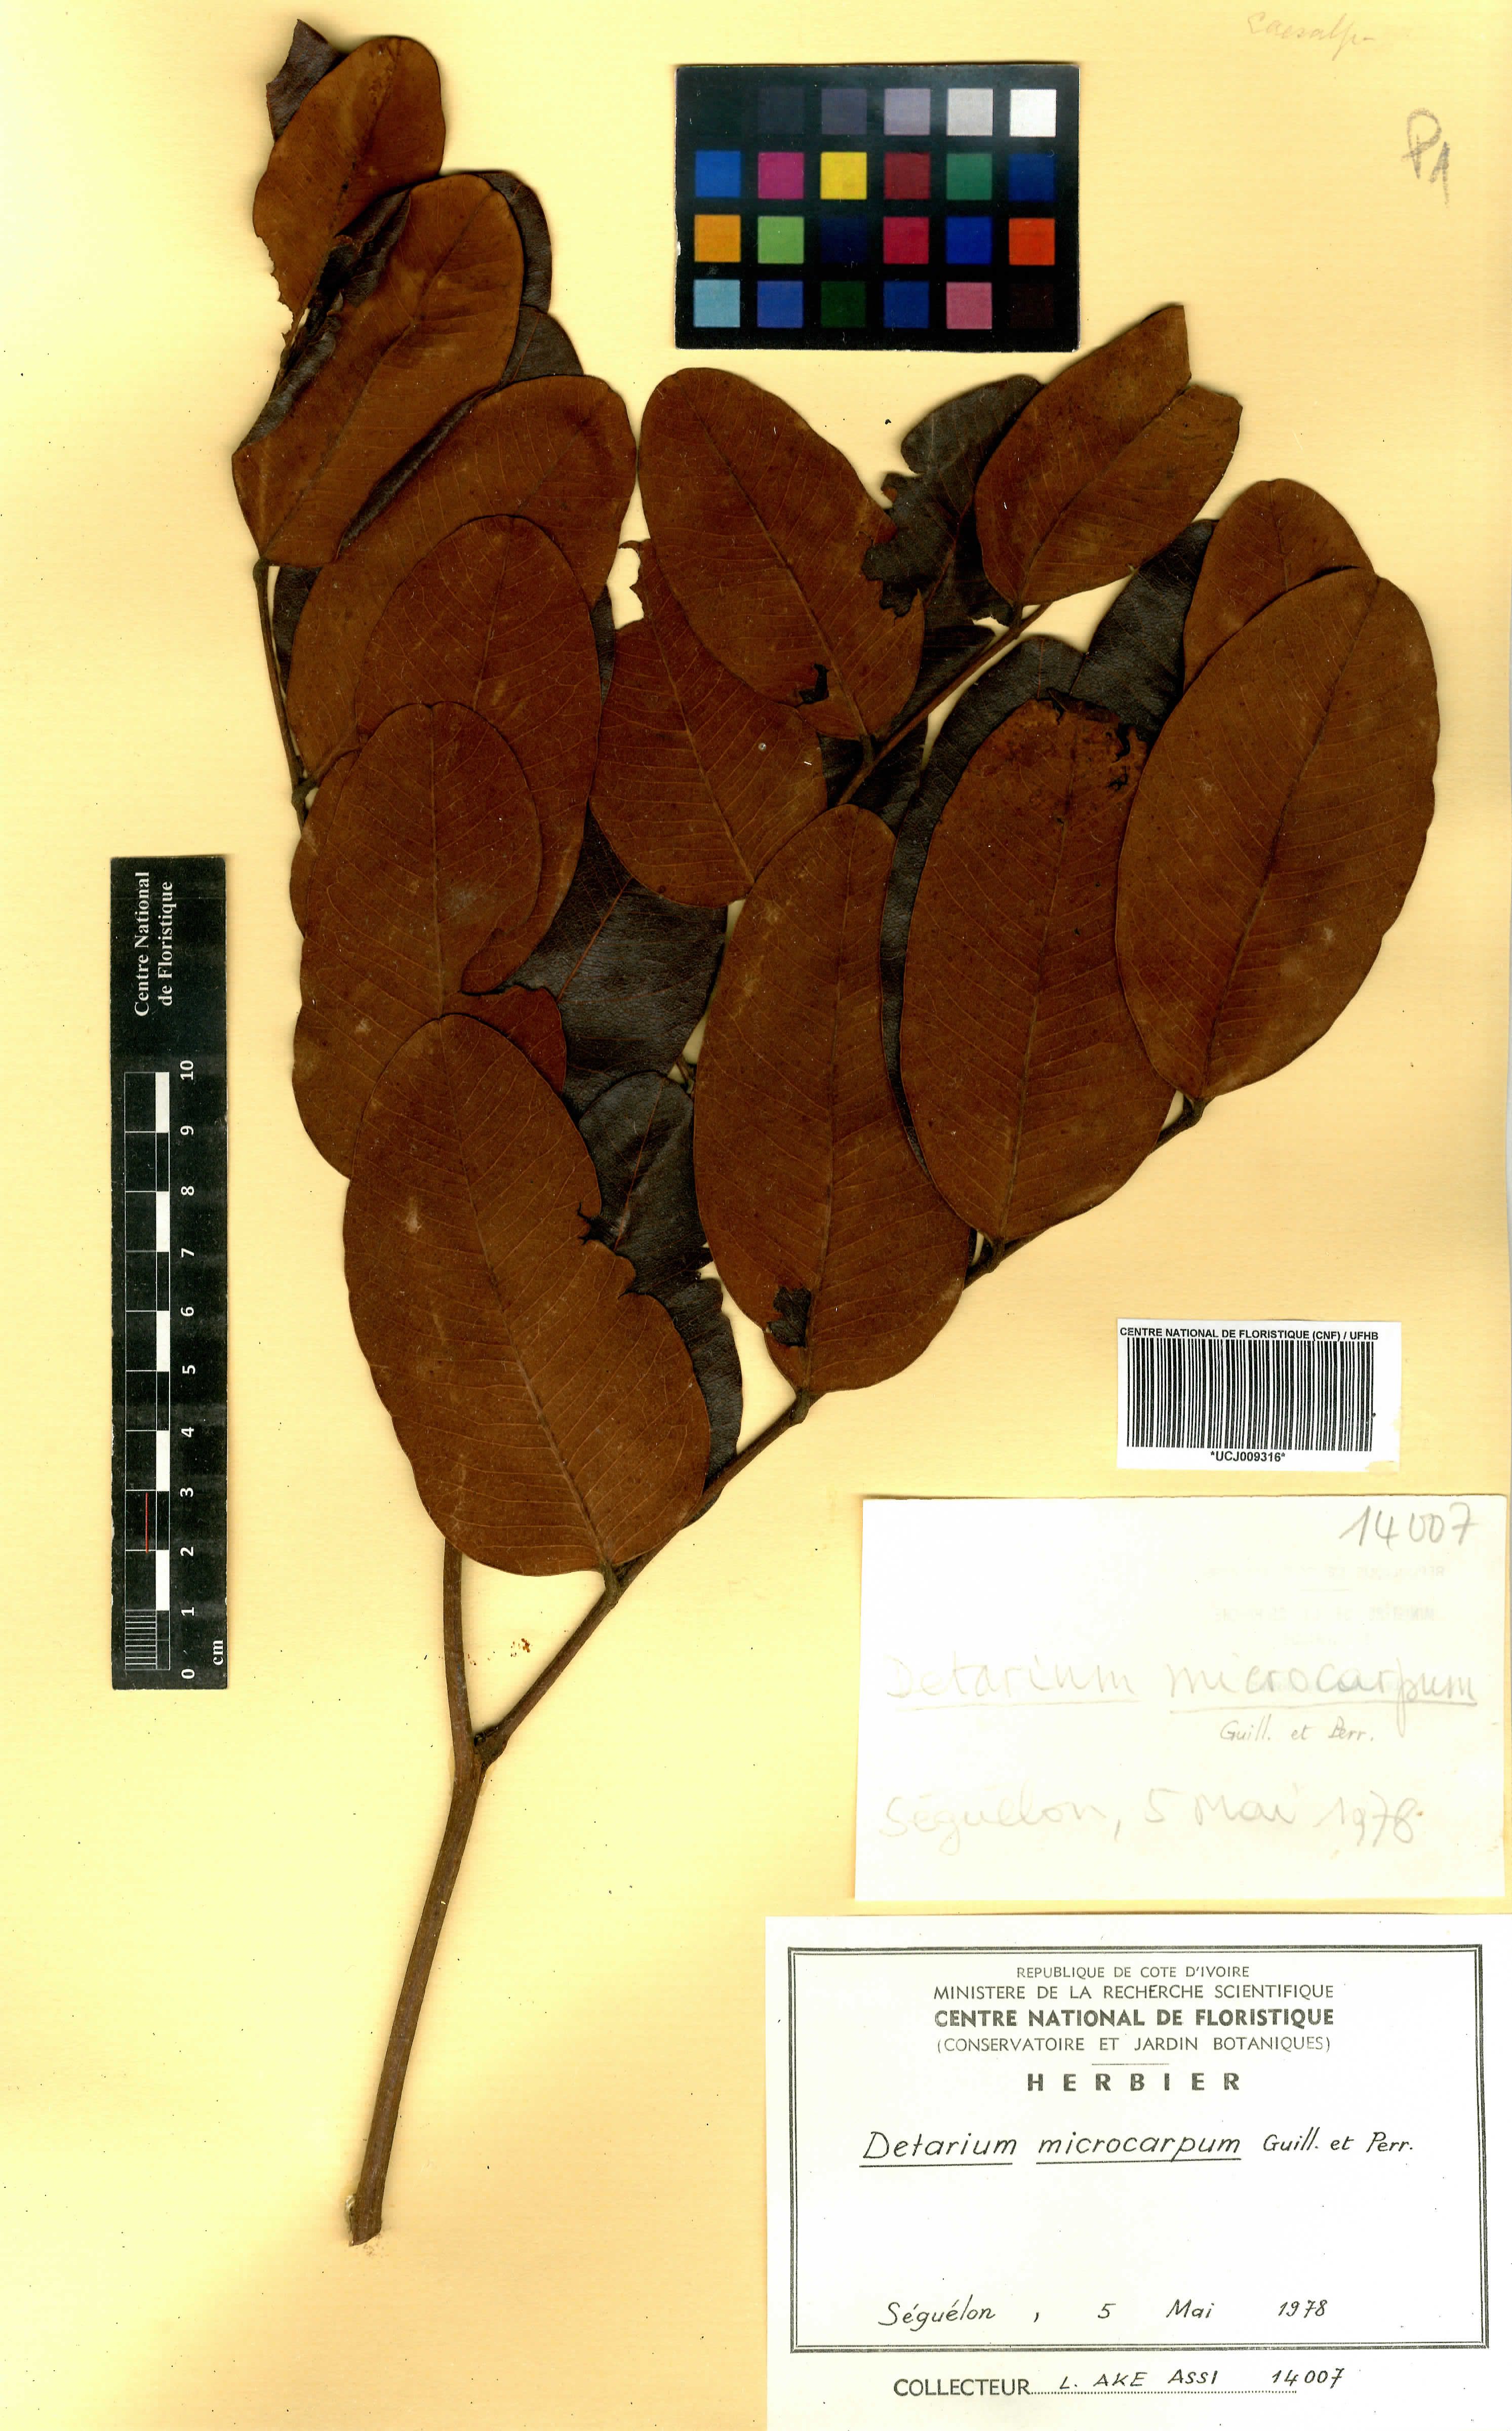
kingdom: Plantae
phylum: Tracheophyta
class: Magnoliopsida
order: Fabales
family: Fabaceae
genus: Detarium
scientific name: Detarium microcarpum
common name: Sweet dattock
